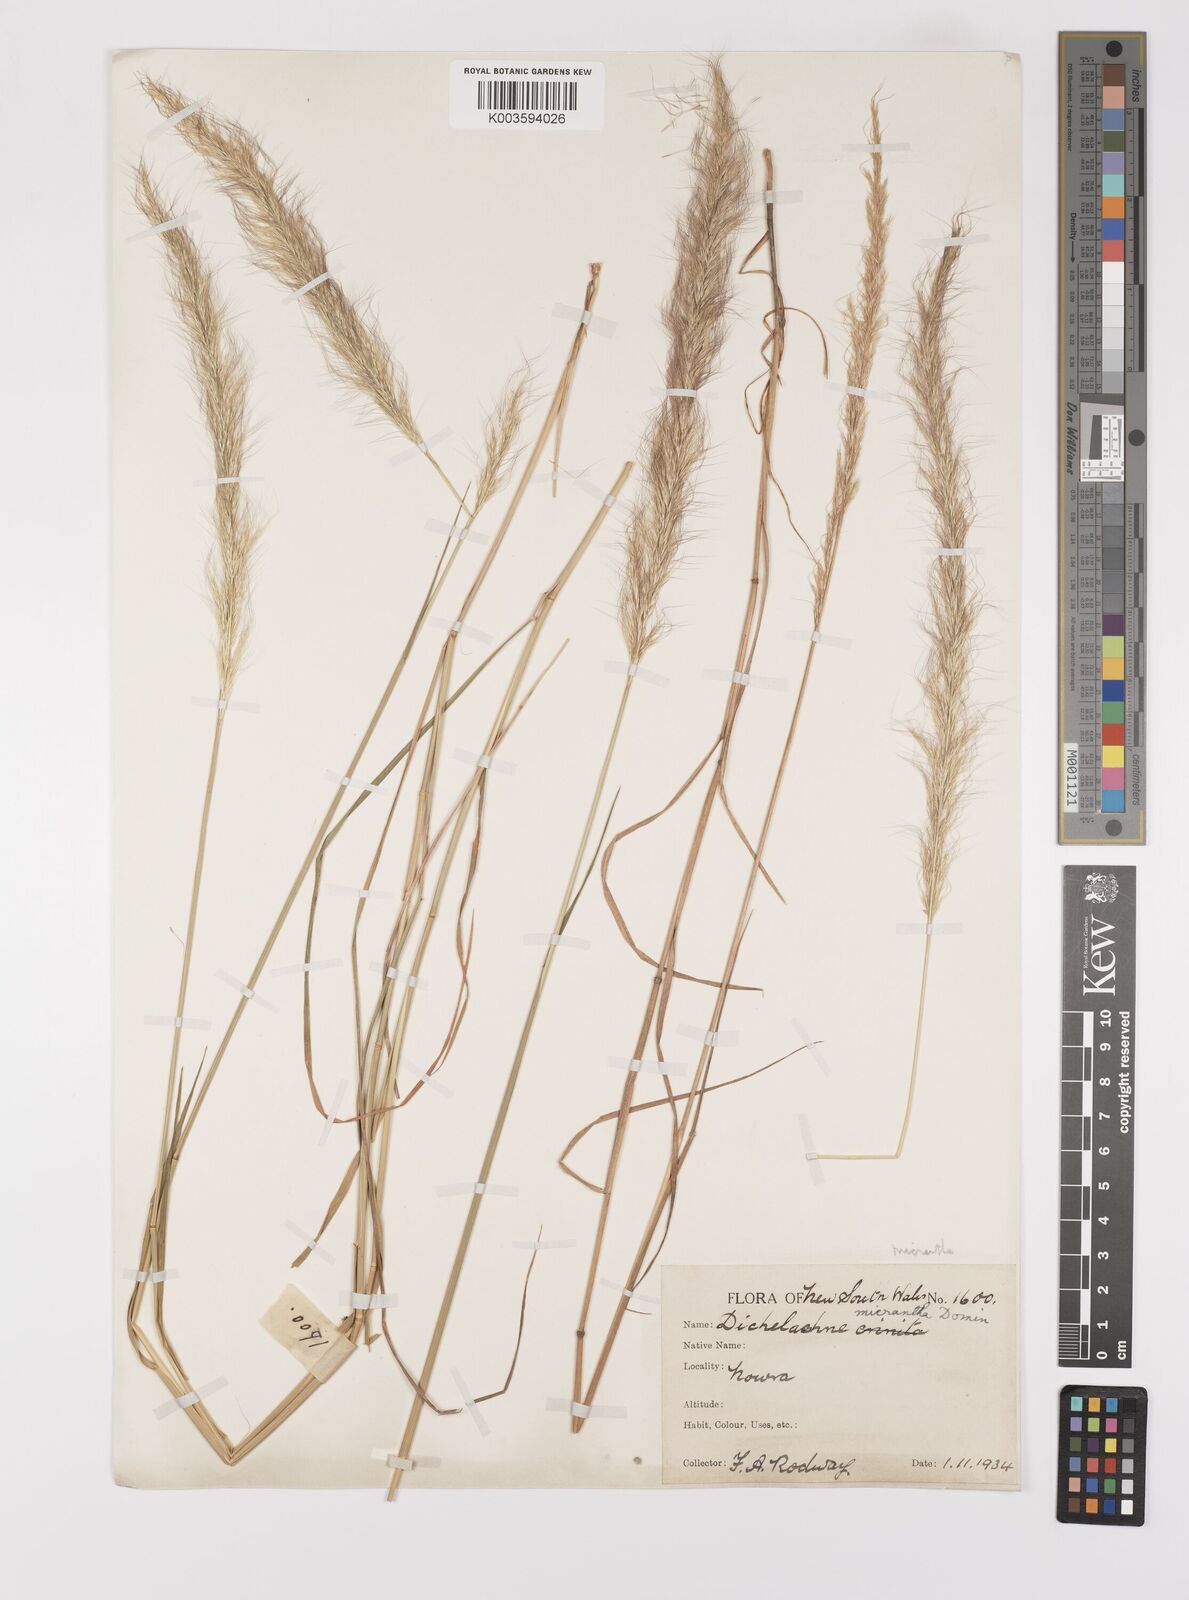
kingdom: Plantae
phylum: Tracheophyta
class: Liliopsida
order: Poales
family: Poaceae
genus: Dichelachne
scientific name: Dichelachne micrantha
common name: Plumegrass
